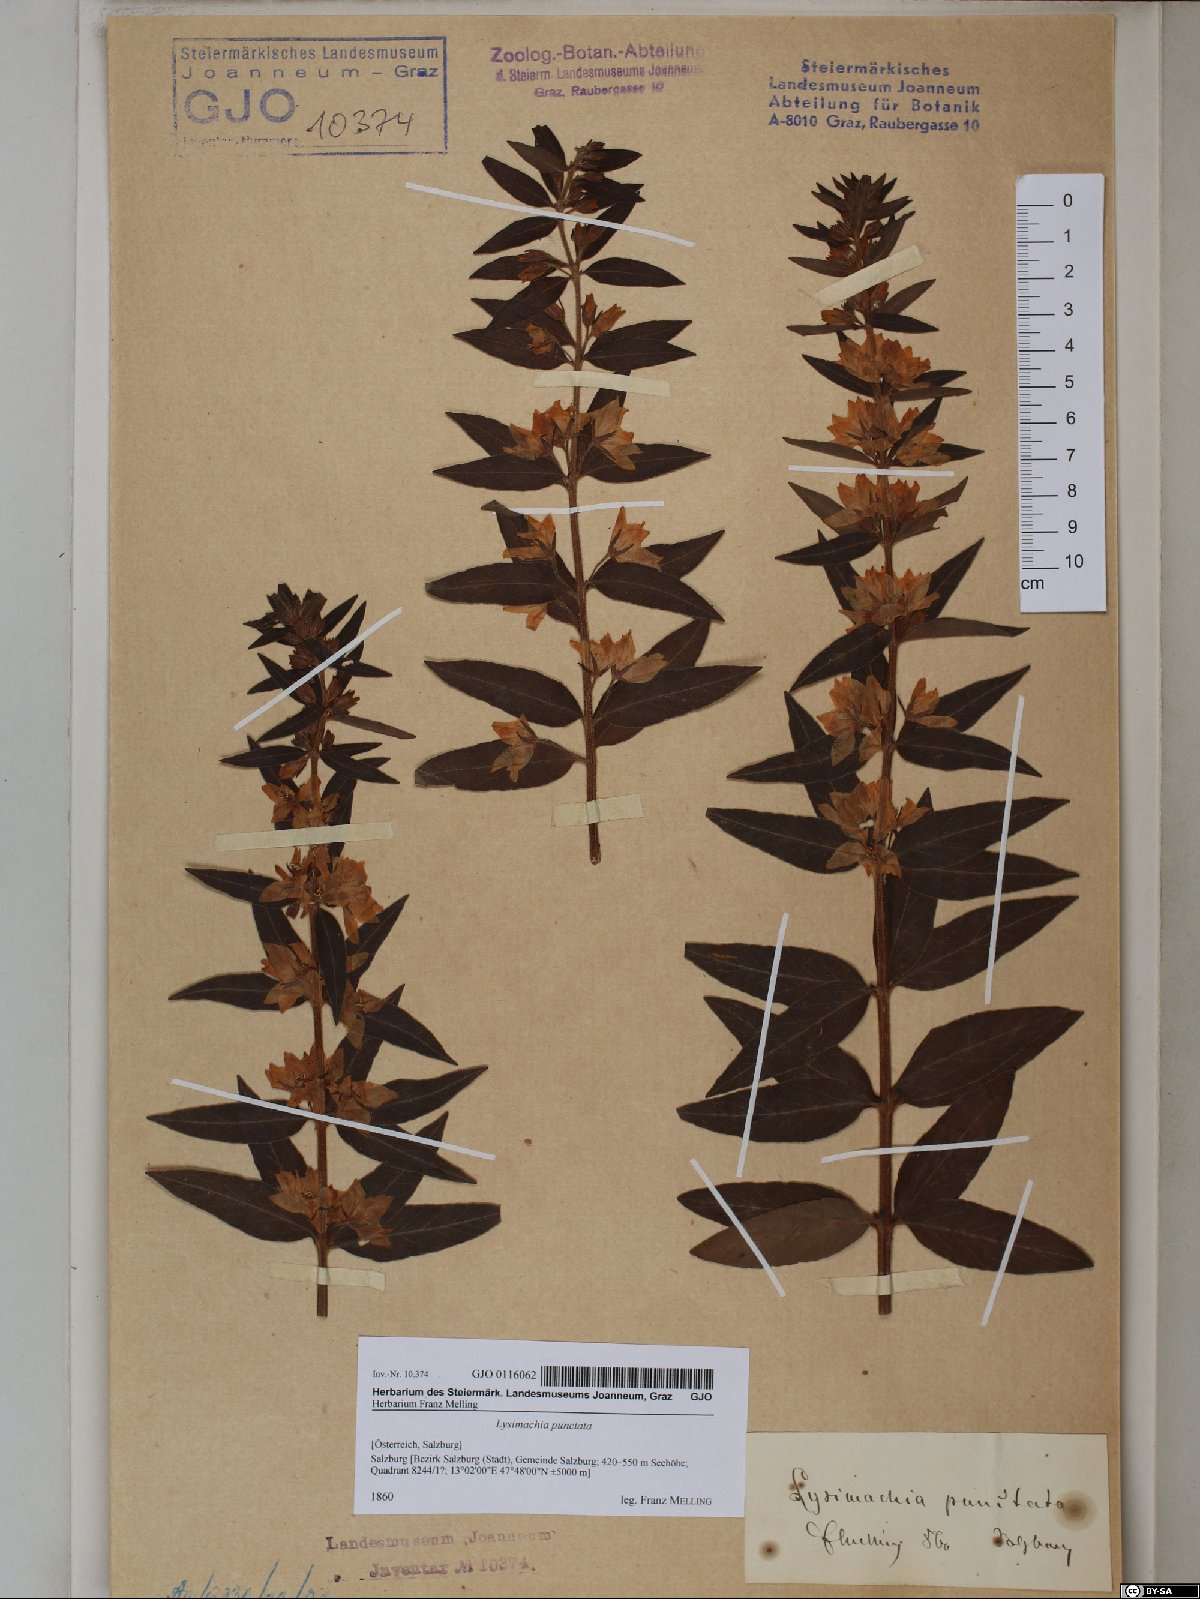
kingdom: Plantae
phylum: Tracheophyta
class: Magnoliopsida
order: Ericales
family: Primulaceae
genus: Lysimachia
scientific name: Lysimachia punctata
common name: Dotted loosestrife
